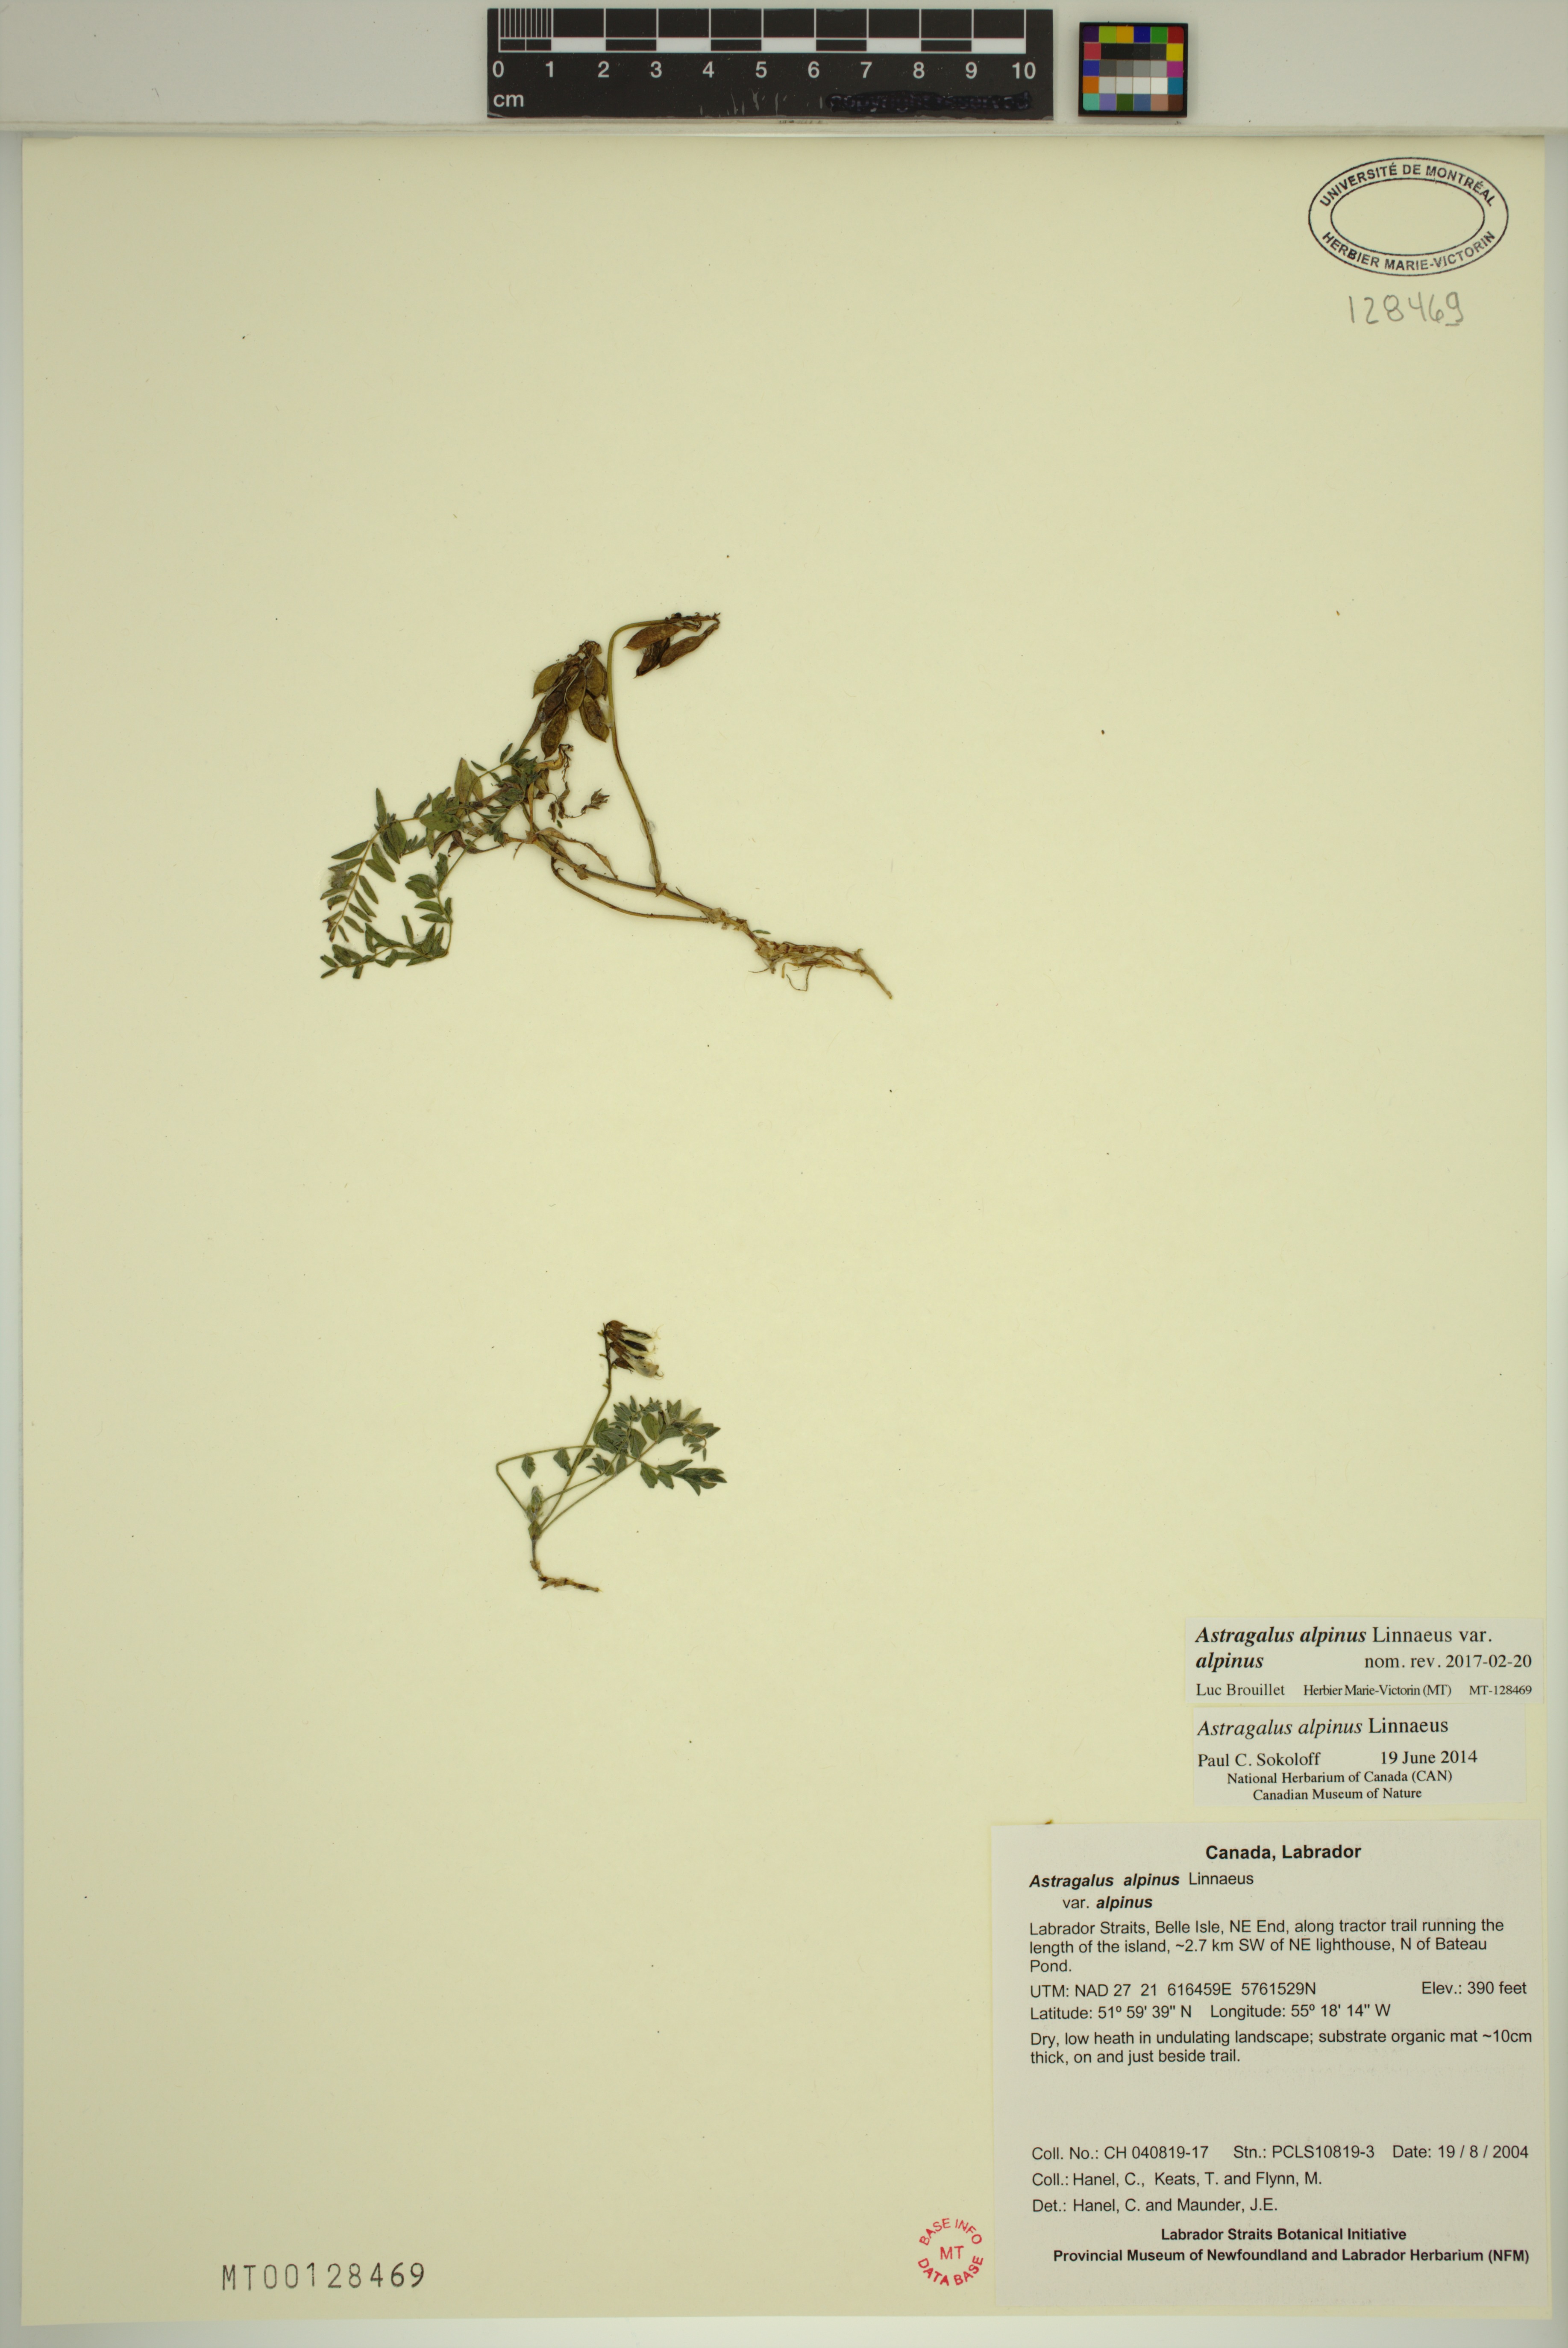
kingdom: Plantae
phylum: Tracheophyta
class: Magnoliopsida
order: Fabales
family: Fabaceae
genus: Astragalus
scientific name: Astragalus alpinus
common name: Alpine milk-vetch
